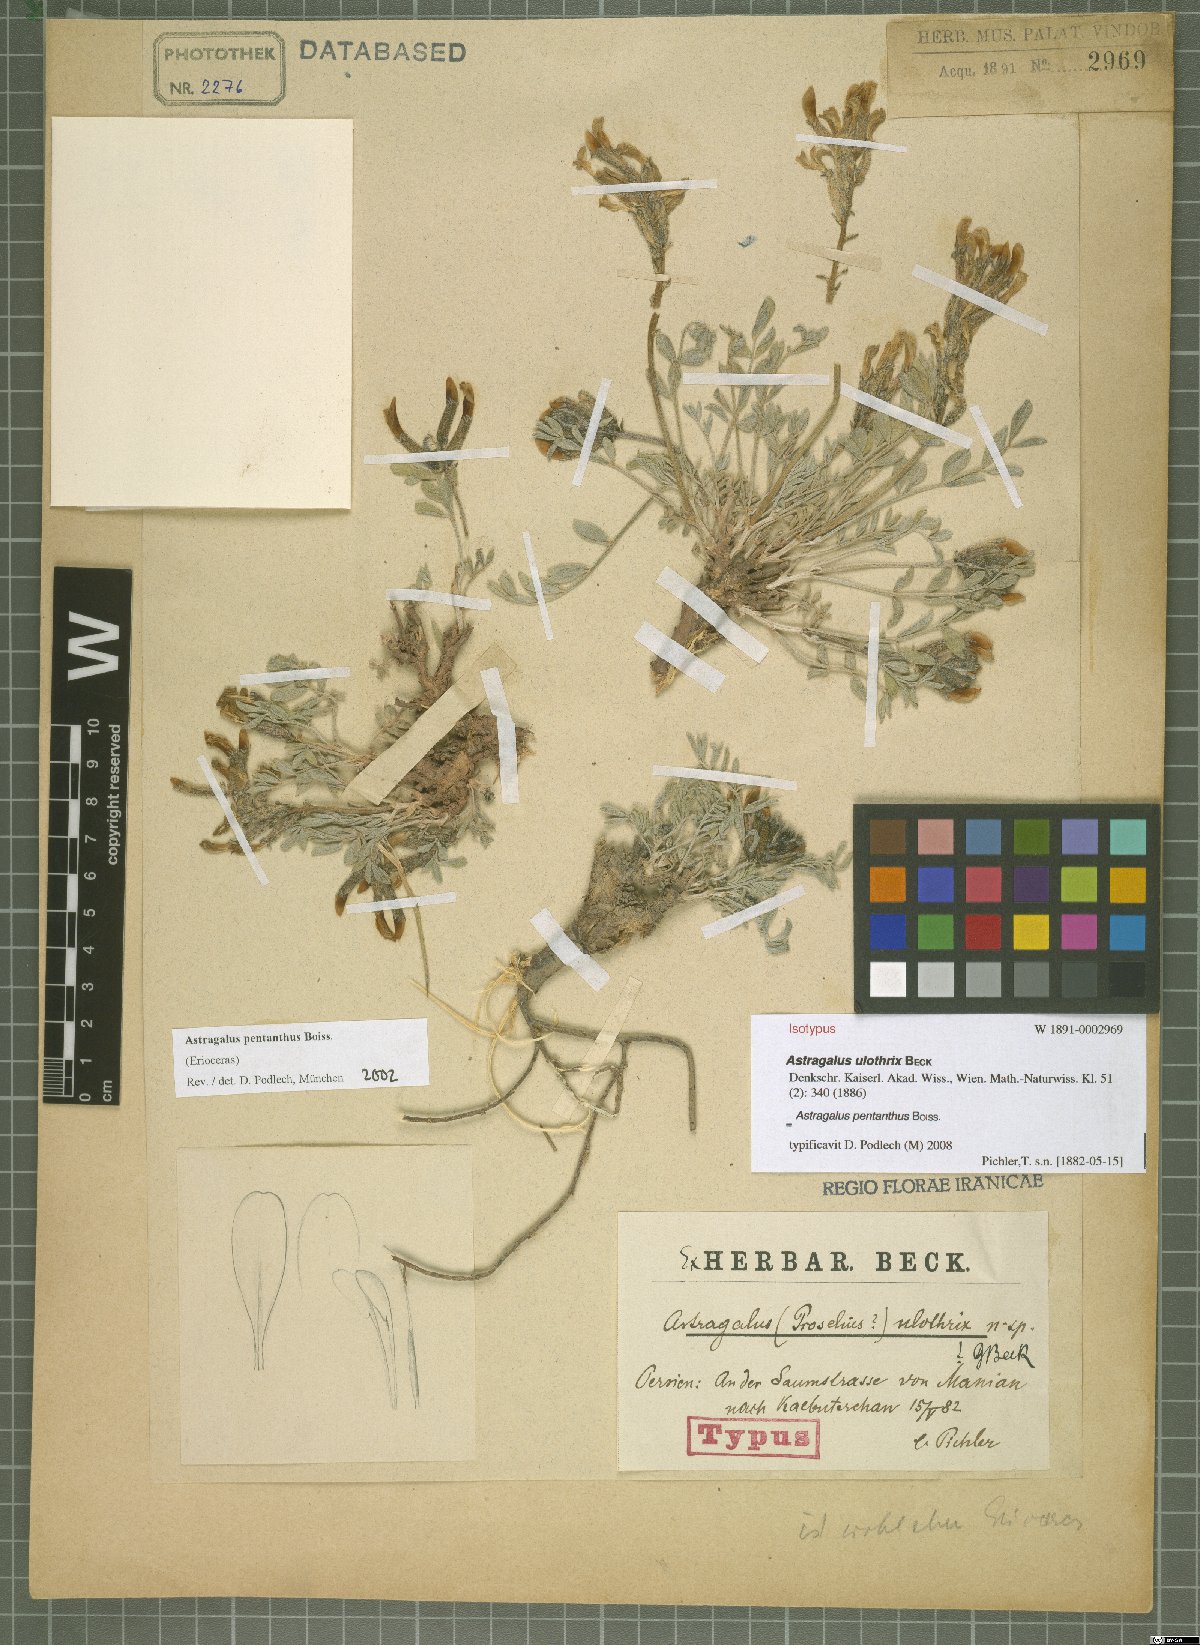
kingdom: Plantae
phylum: Tracheophyta
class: Magnoliopsida
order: Fabales
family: Fabaceae
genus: Astragalus
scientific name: Astragalus pentanthus
